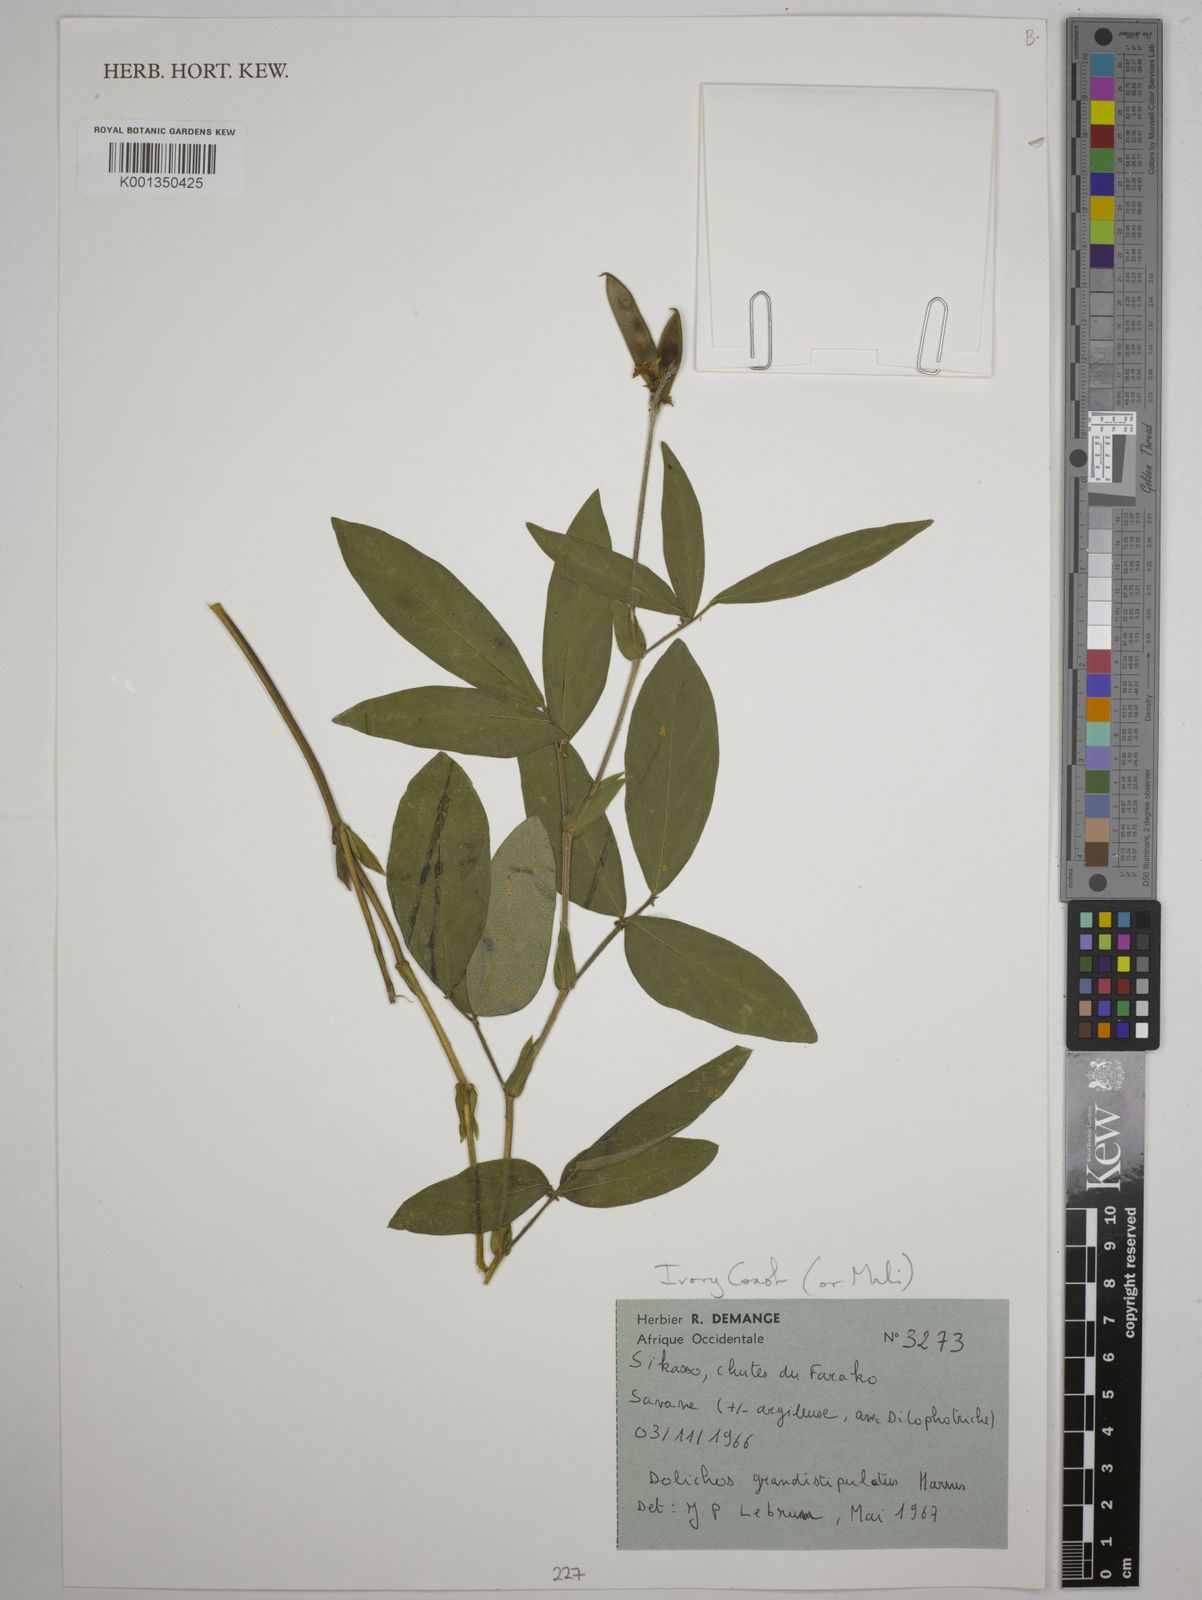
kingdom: Plantae
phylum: Tracheophyta
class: Magnoliopsida
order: Fabales
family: Fabaceae
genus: Dolichos
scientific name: Dolichos grandistipulatus
